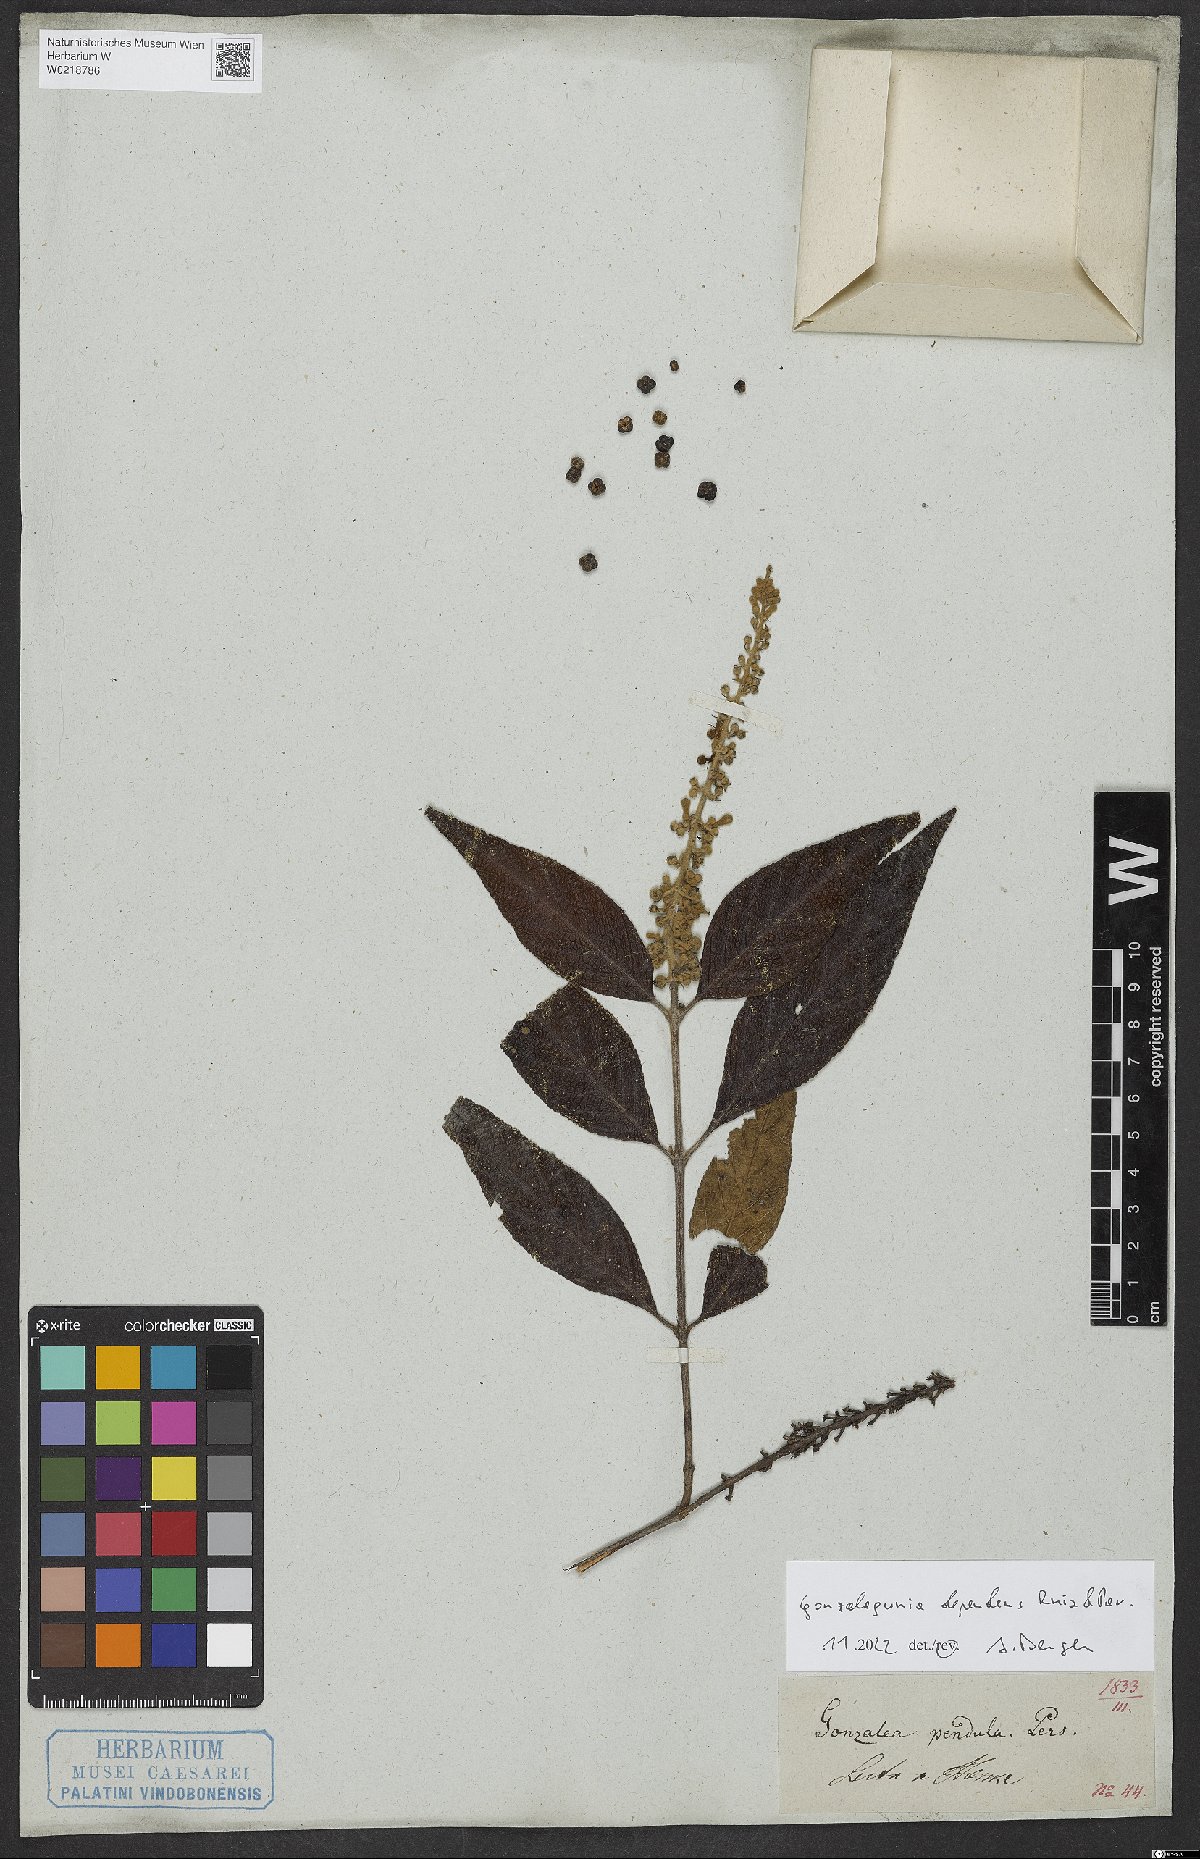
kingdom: Plantae
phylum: Tracheophyta
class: Magnoliopsida
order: Gentianales
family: Rubiaceae
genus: Gonzalagunia
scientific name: Gonzalagunia dependens
